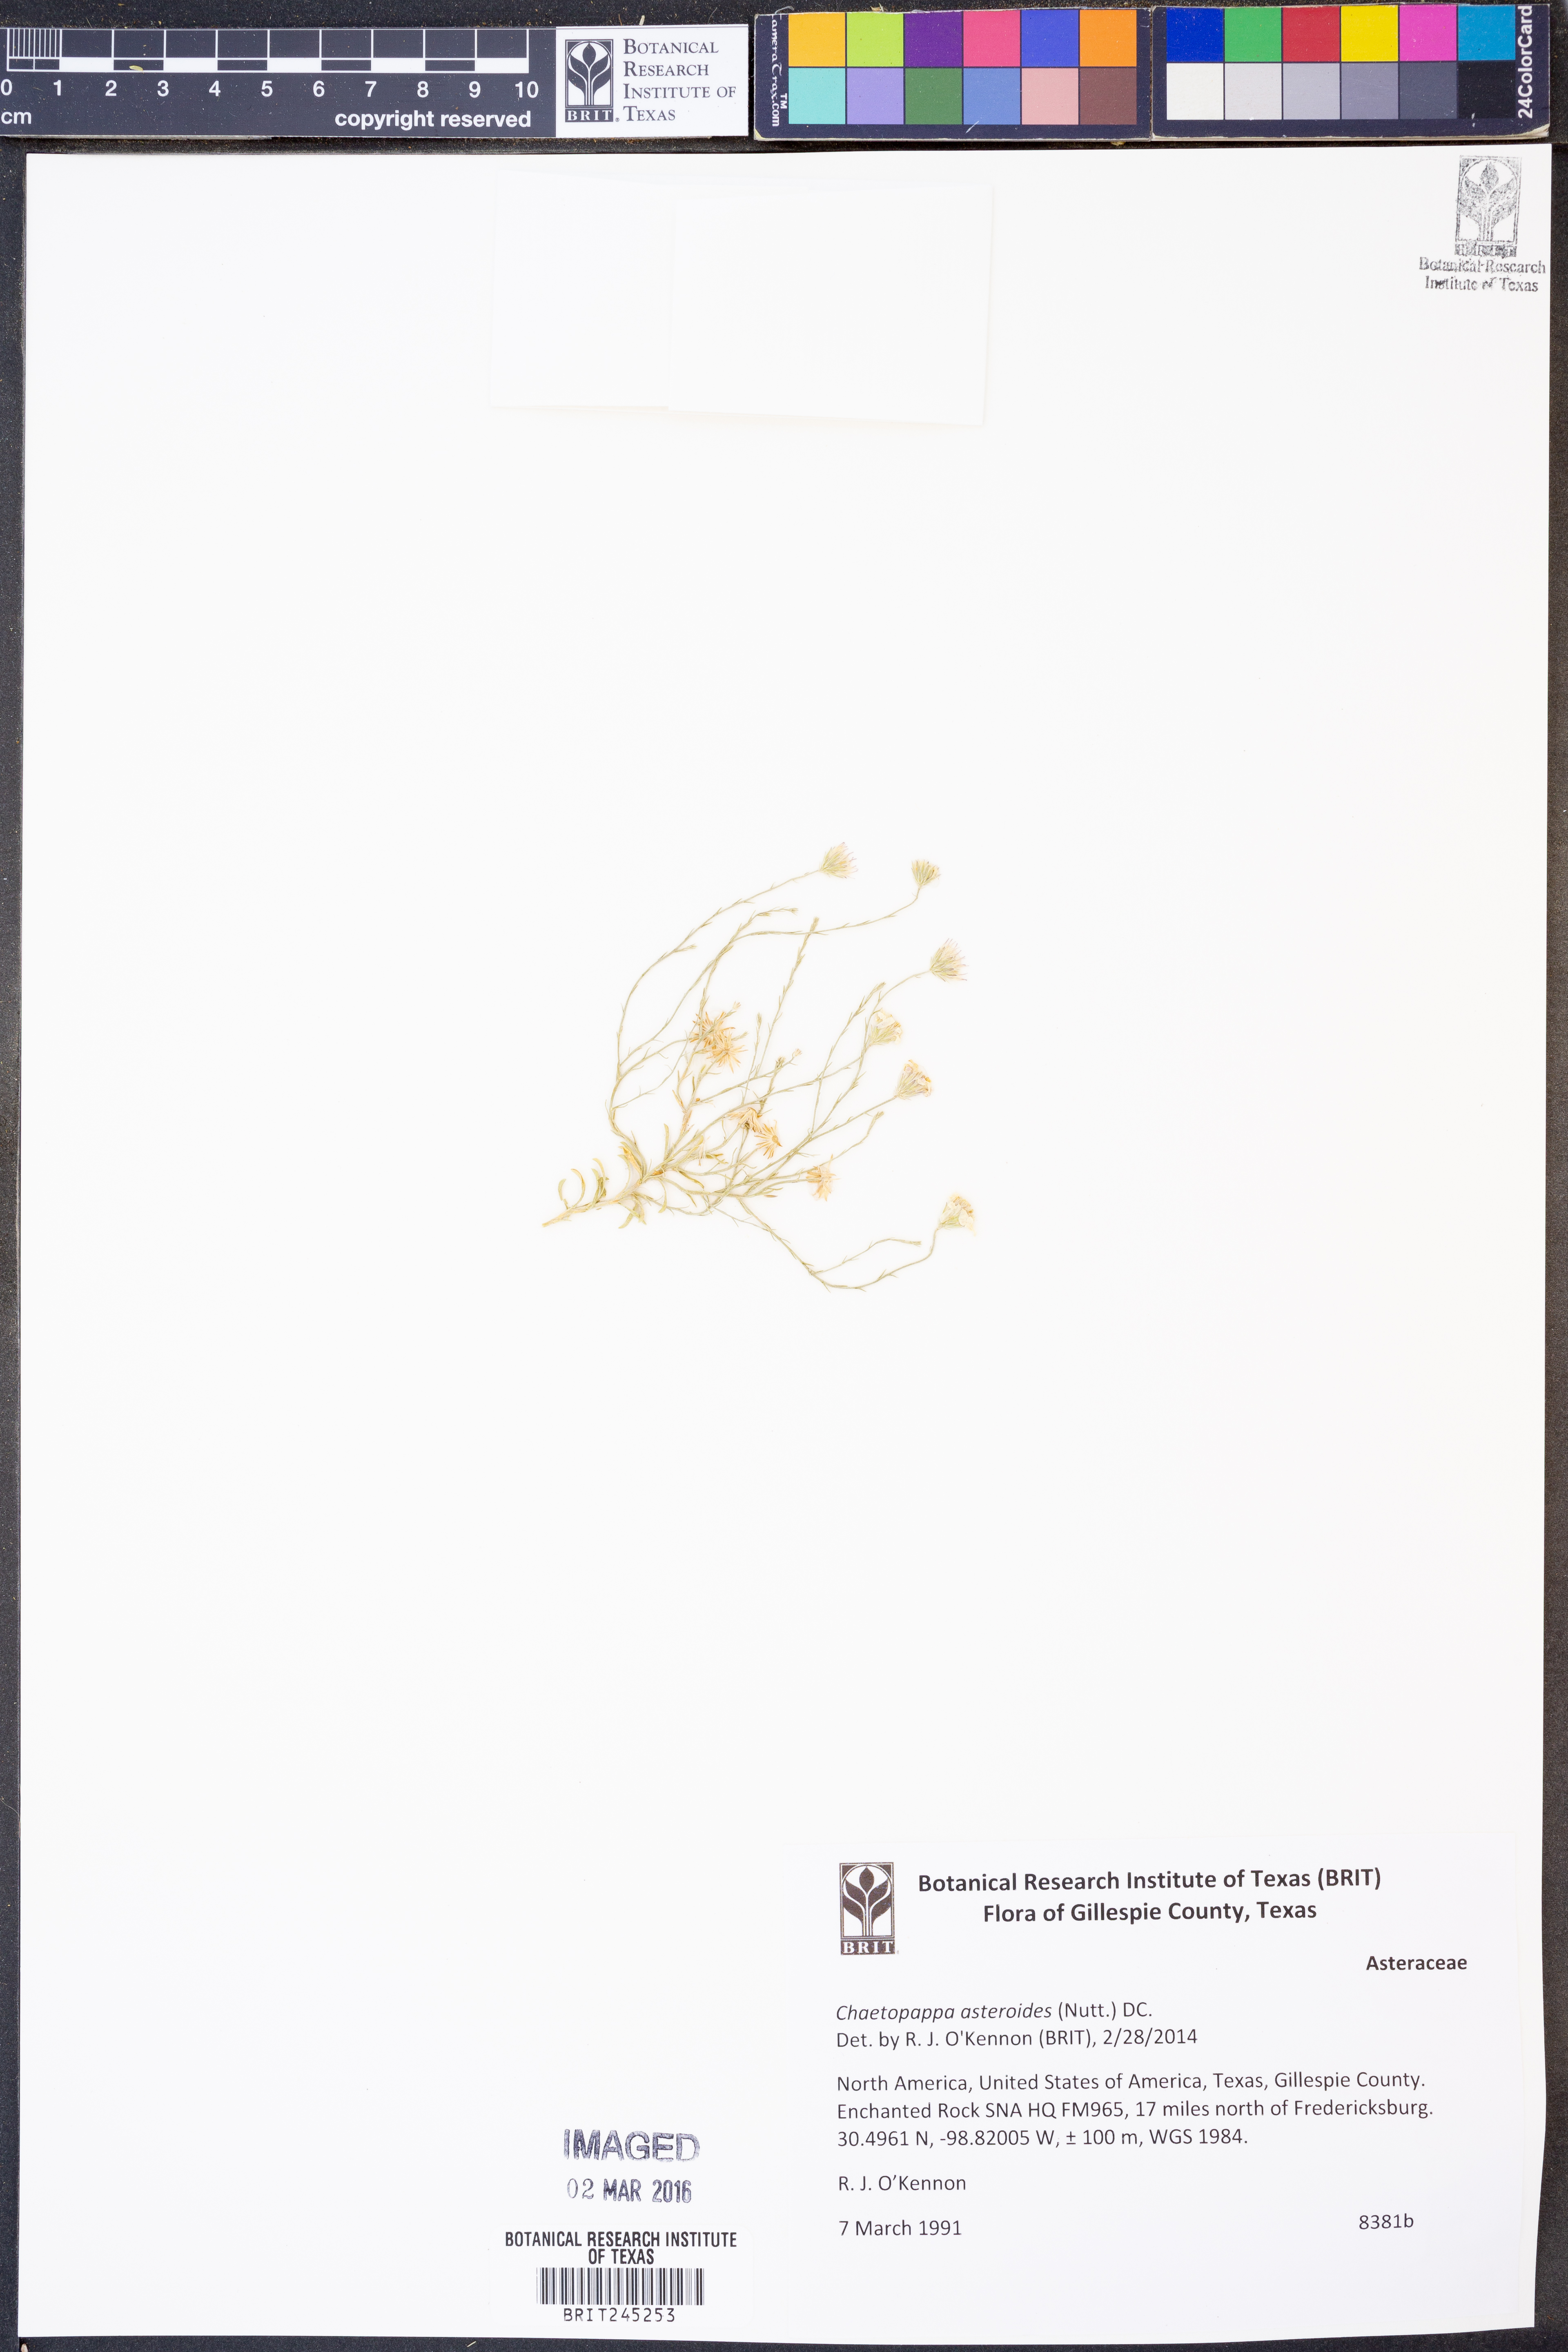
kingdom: Plantae
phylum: Tracheophyta
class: Magnoliopsida
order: Asterales
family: Asteraceae
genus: Chaetopappa
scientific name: Chaetopappa asteroides
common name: Tiny lazy daisy
